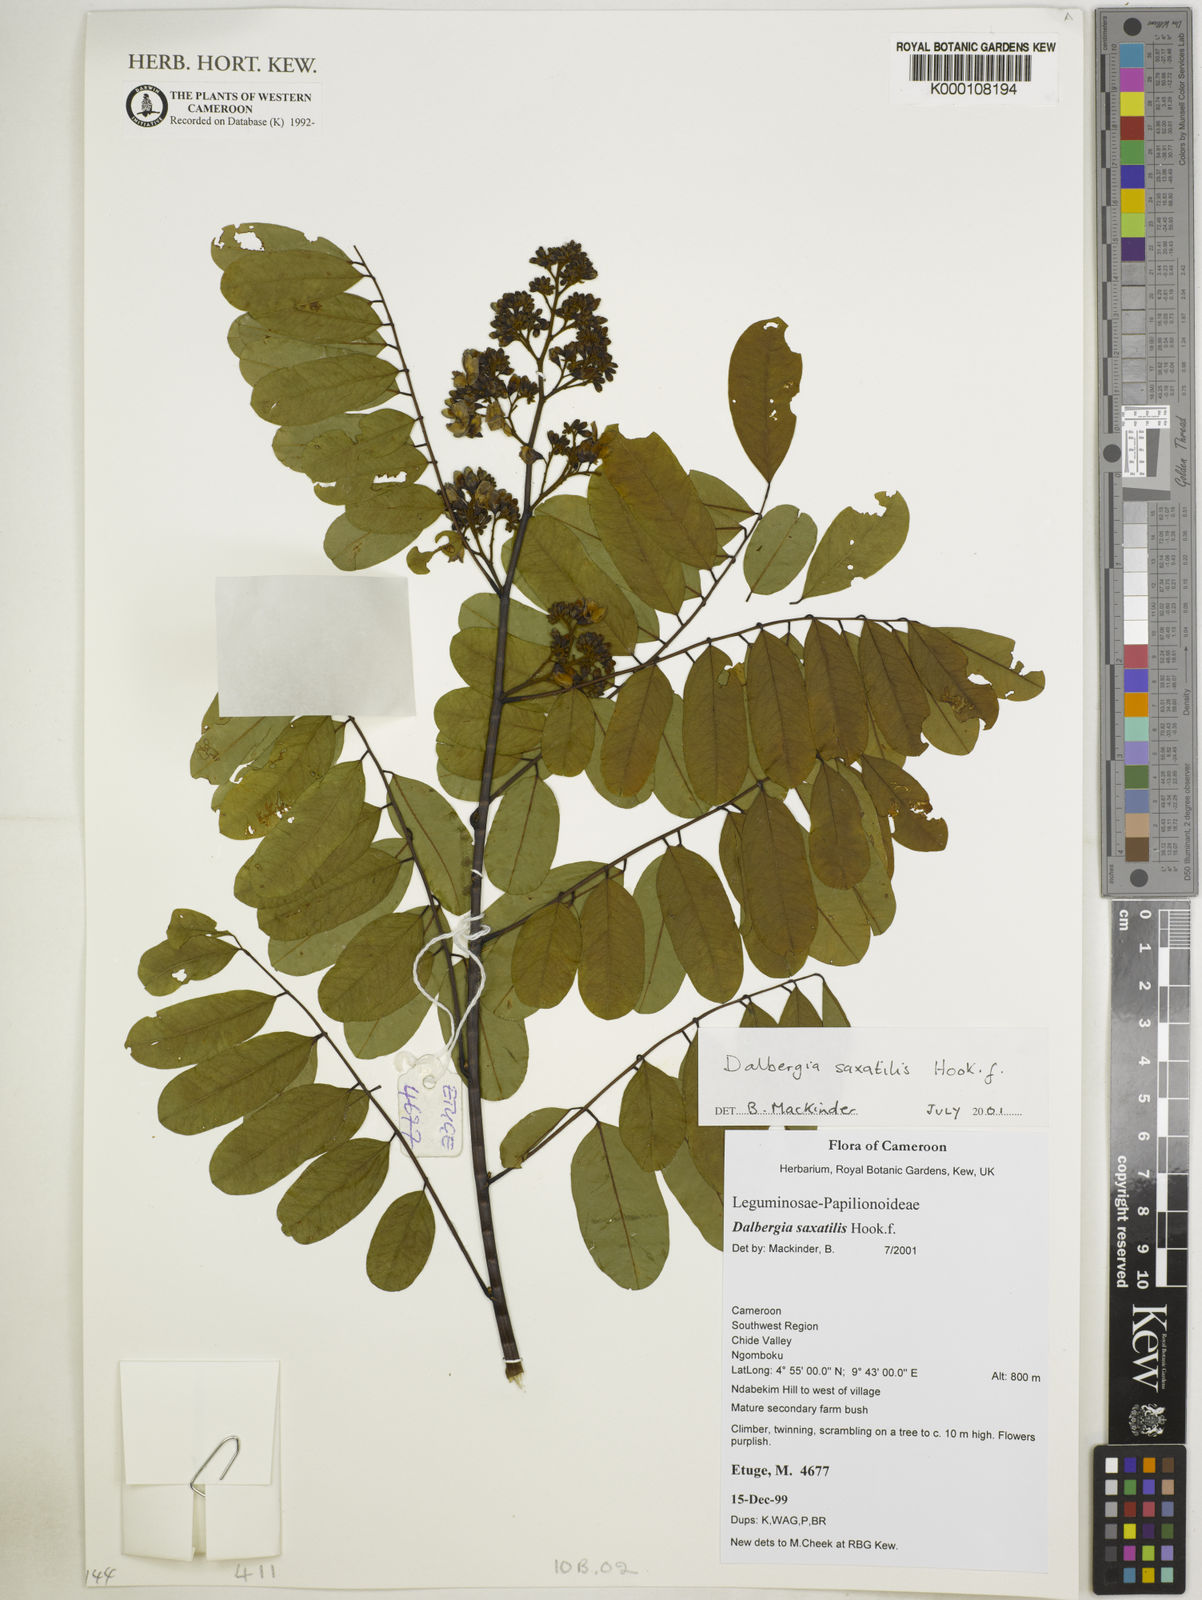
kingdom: Plantae
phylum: Tracheophyta
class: Magnoliopsida
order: Fabales
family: Fabaceae
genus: Dalbergia
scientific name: Dalbergia saxatilis
